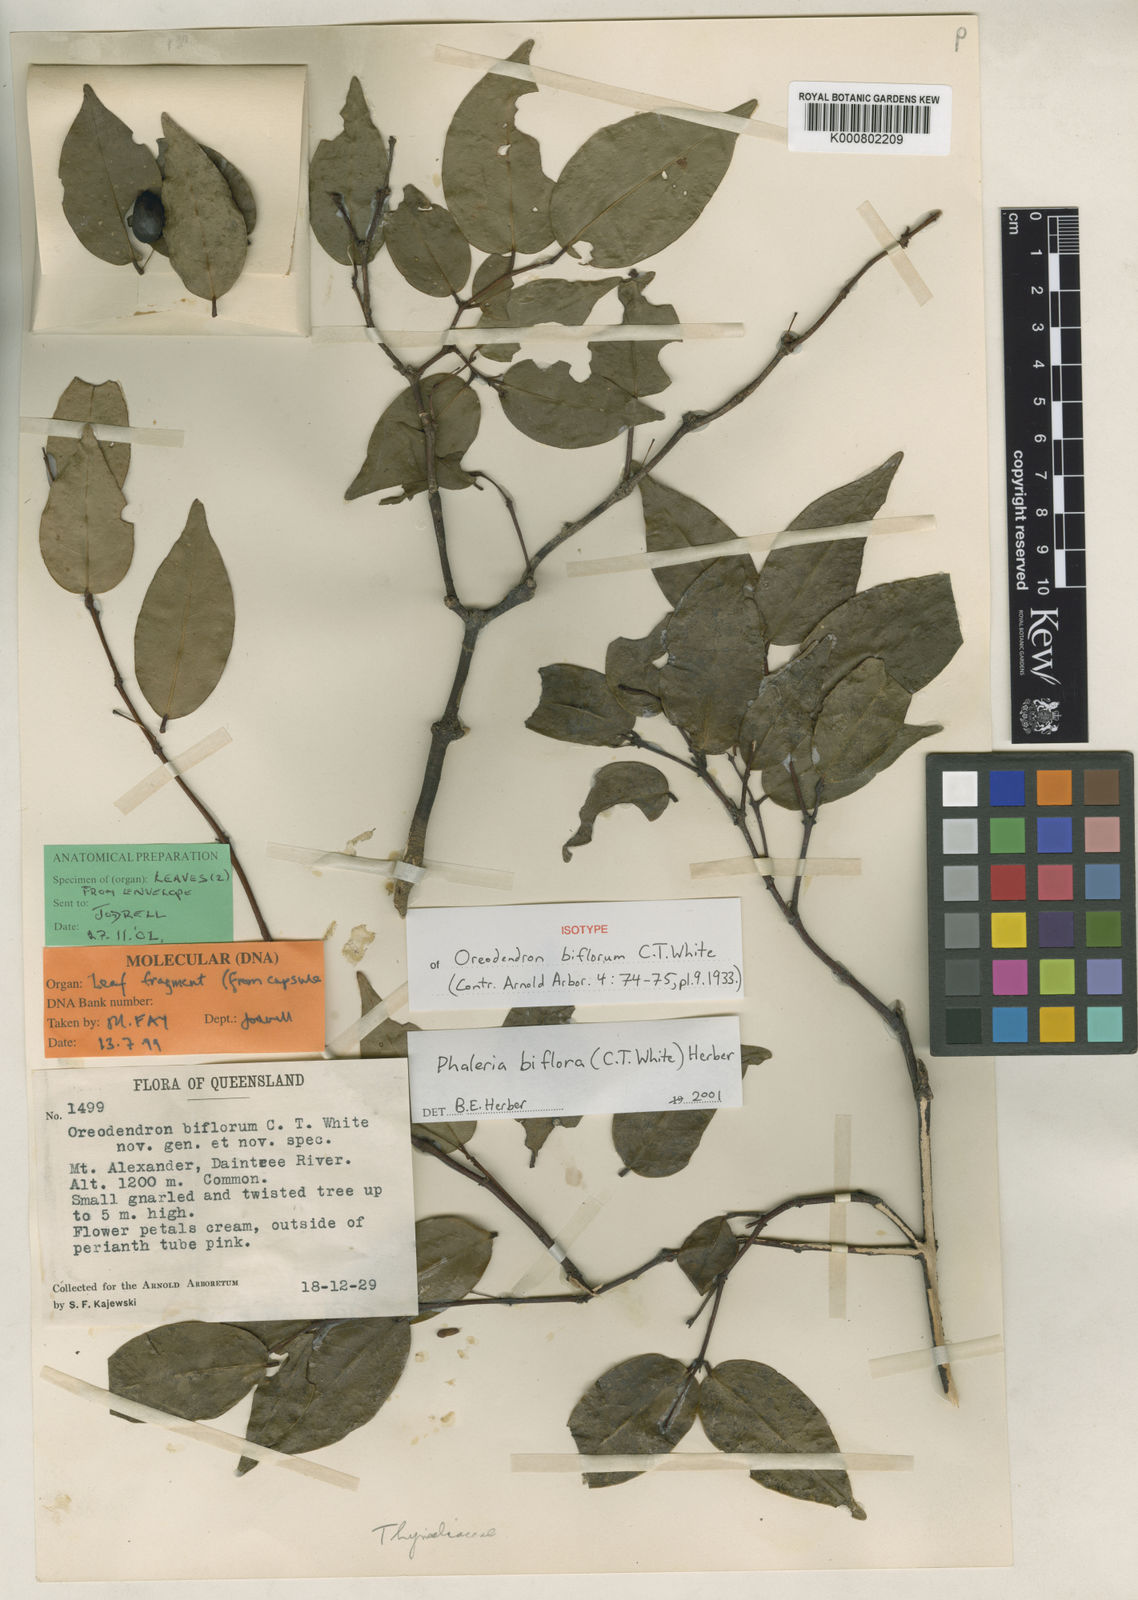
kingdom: Plantae
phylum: Tracheophyta
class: Magnoliopsida
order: Malvales
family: Thymelaeaceae
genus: Phaleria
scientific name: Phaleria biflora
